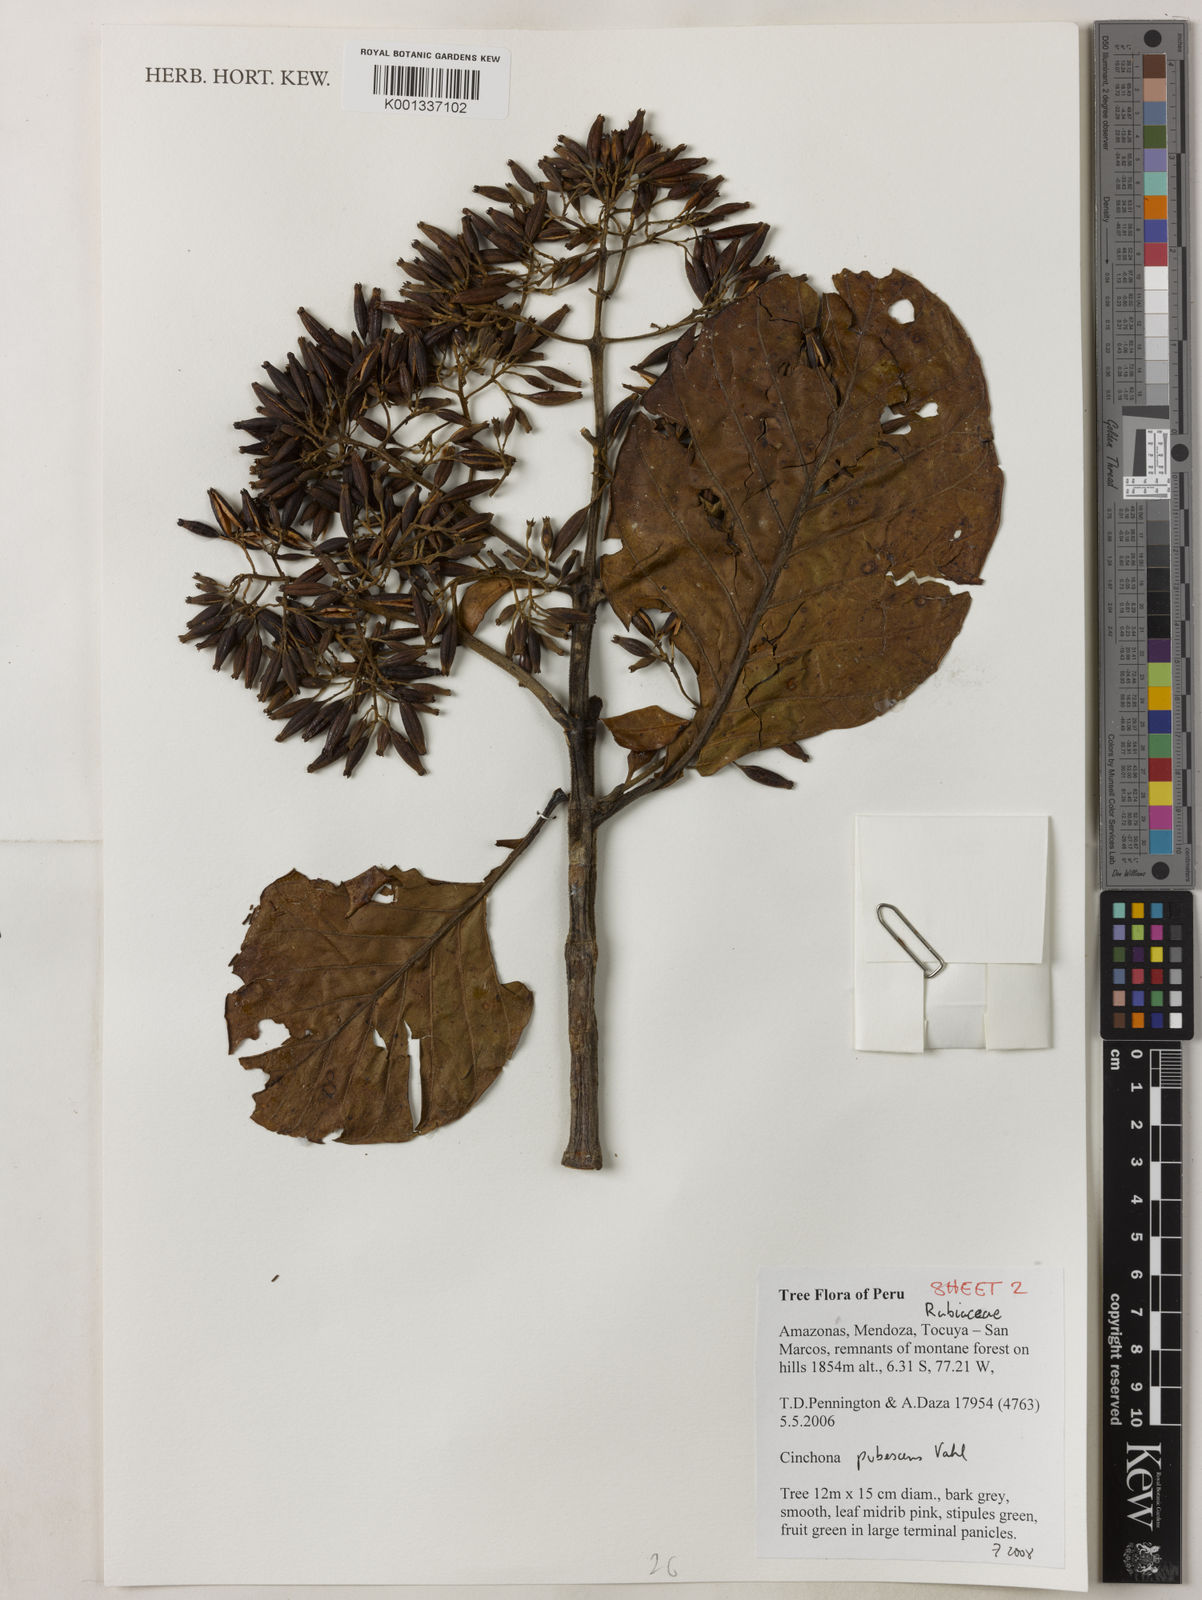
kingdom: Plantae
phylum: Tracheophyta
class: Magnoliopsida
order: Gentianales
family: Rubiaceae
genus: Cinchona
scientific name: Cinchona pubescens
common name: Quinine
